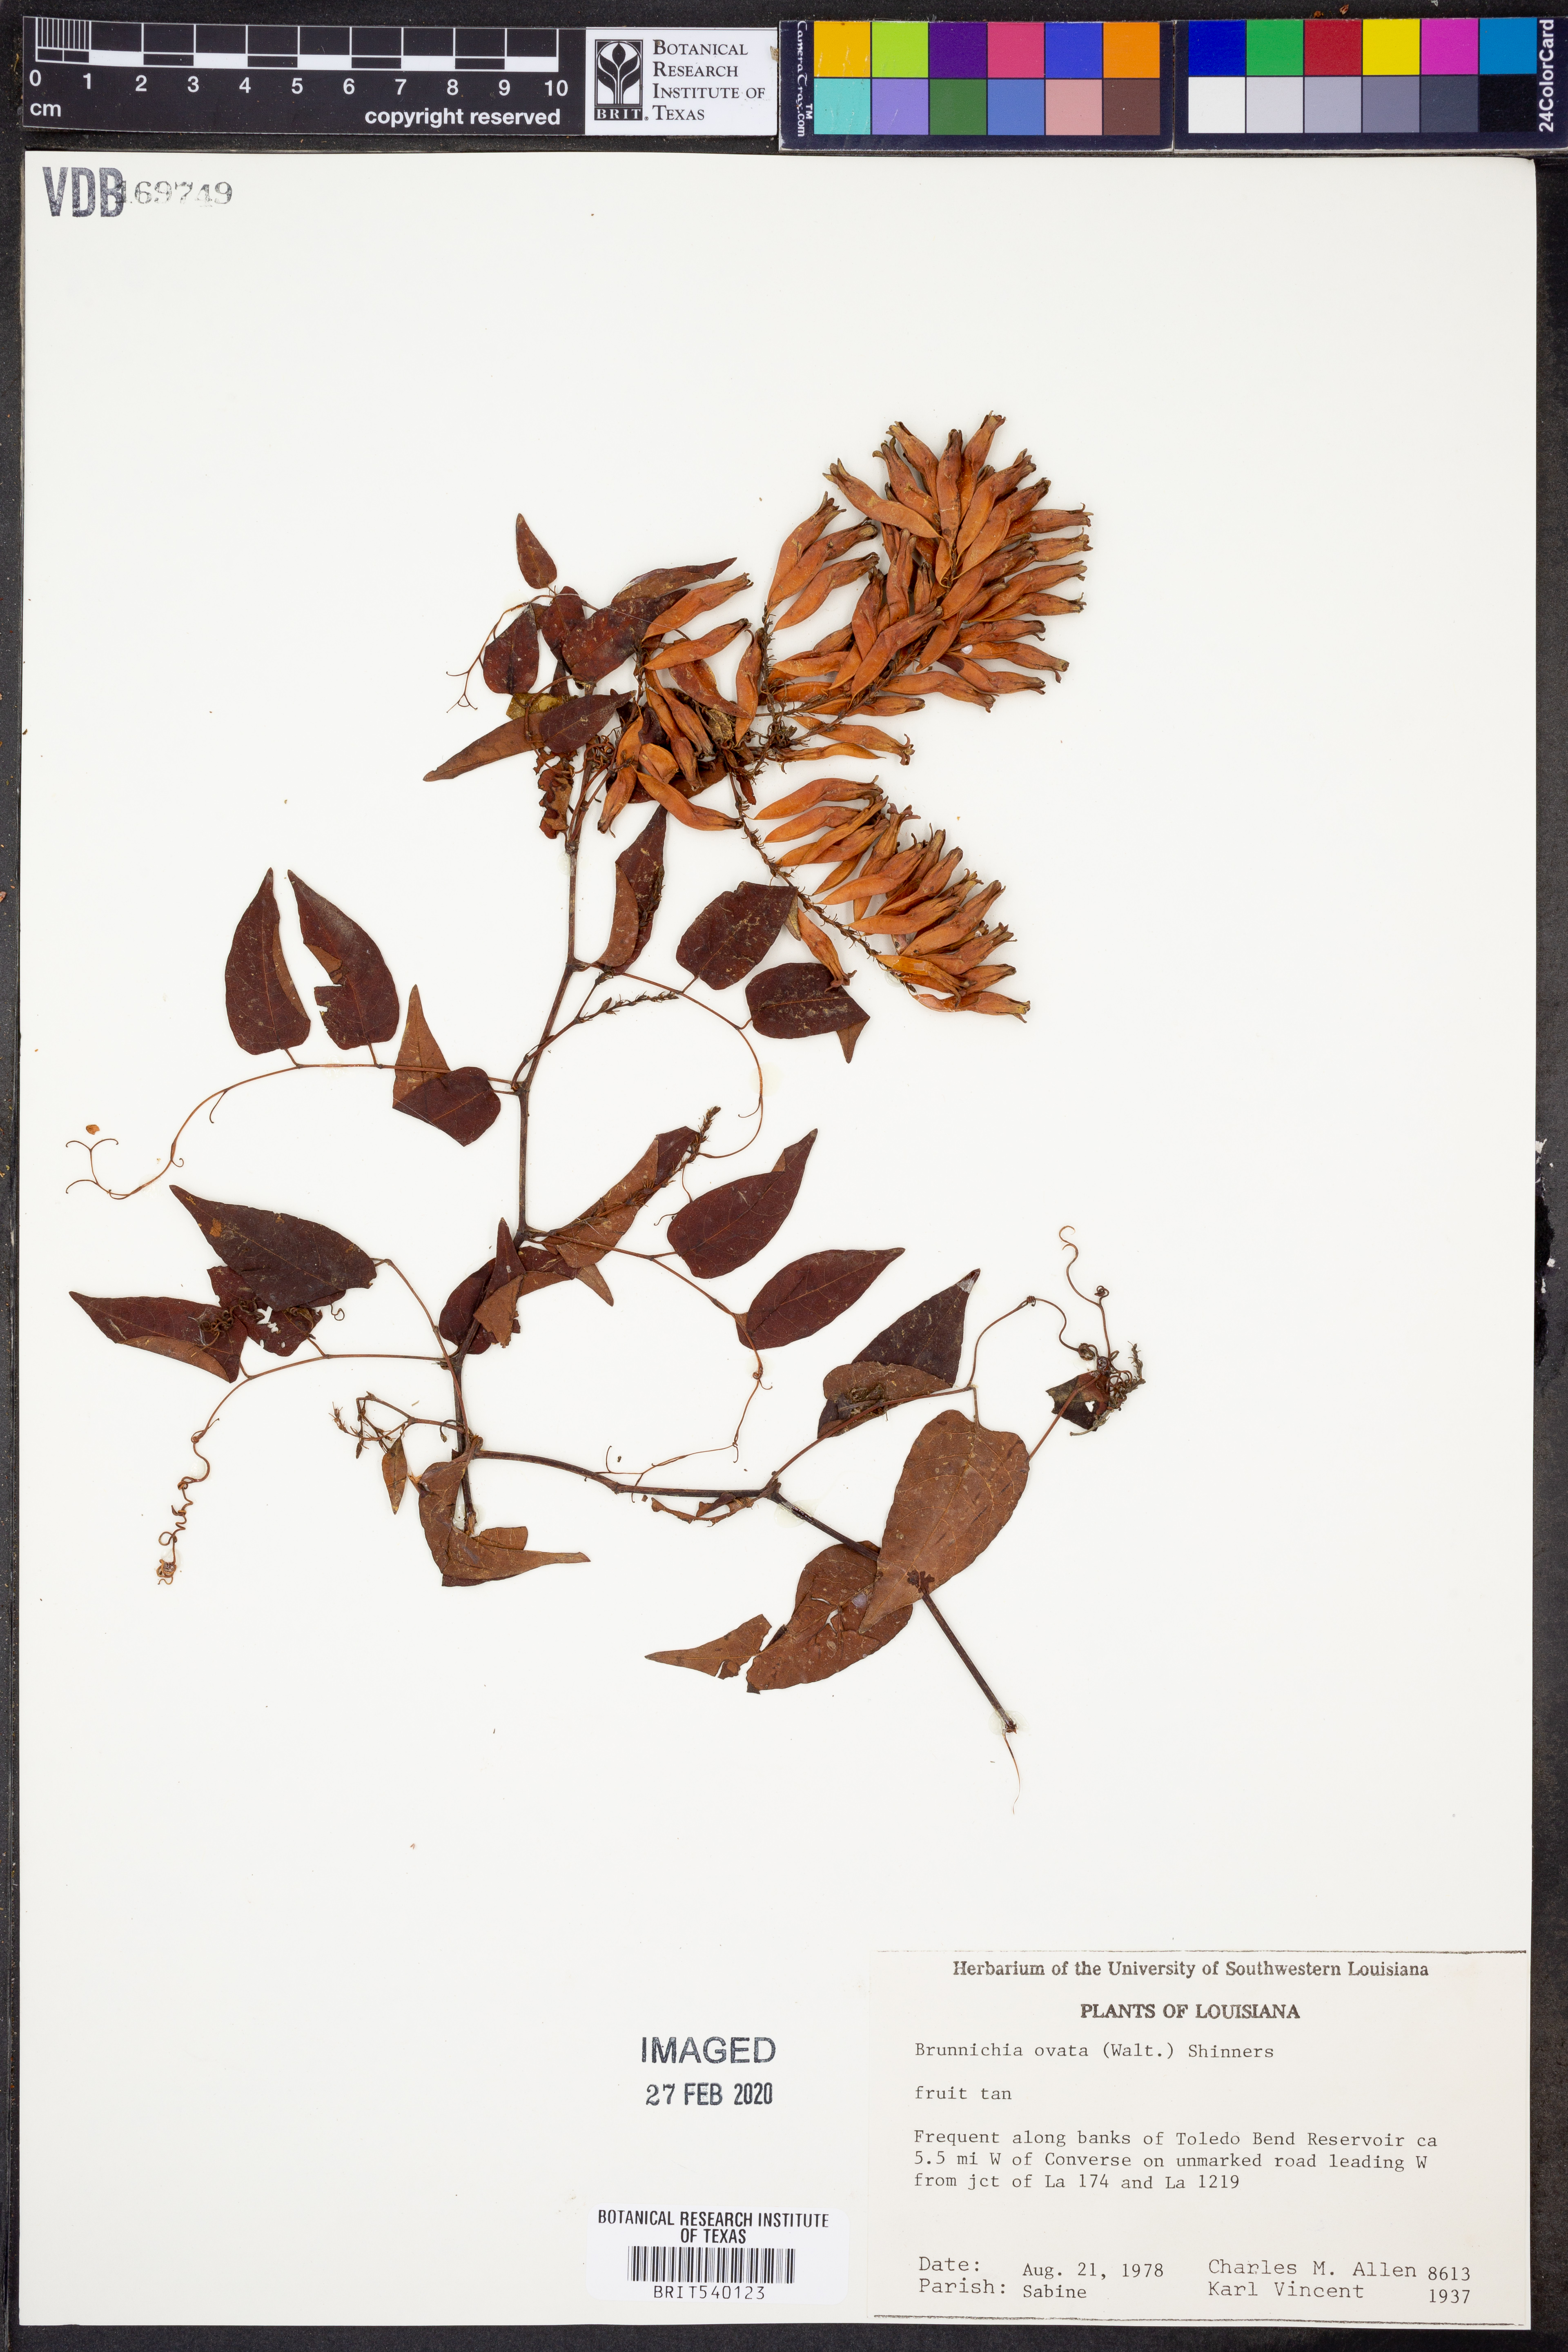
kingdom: Plantae
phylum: Tracheophyta
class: Magnoliopsida
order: Caryophyllales
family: Polygonaceae
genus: Brunnichia
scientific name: Brunnichia ovata
